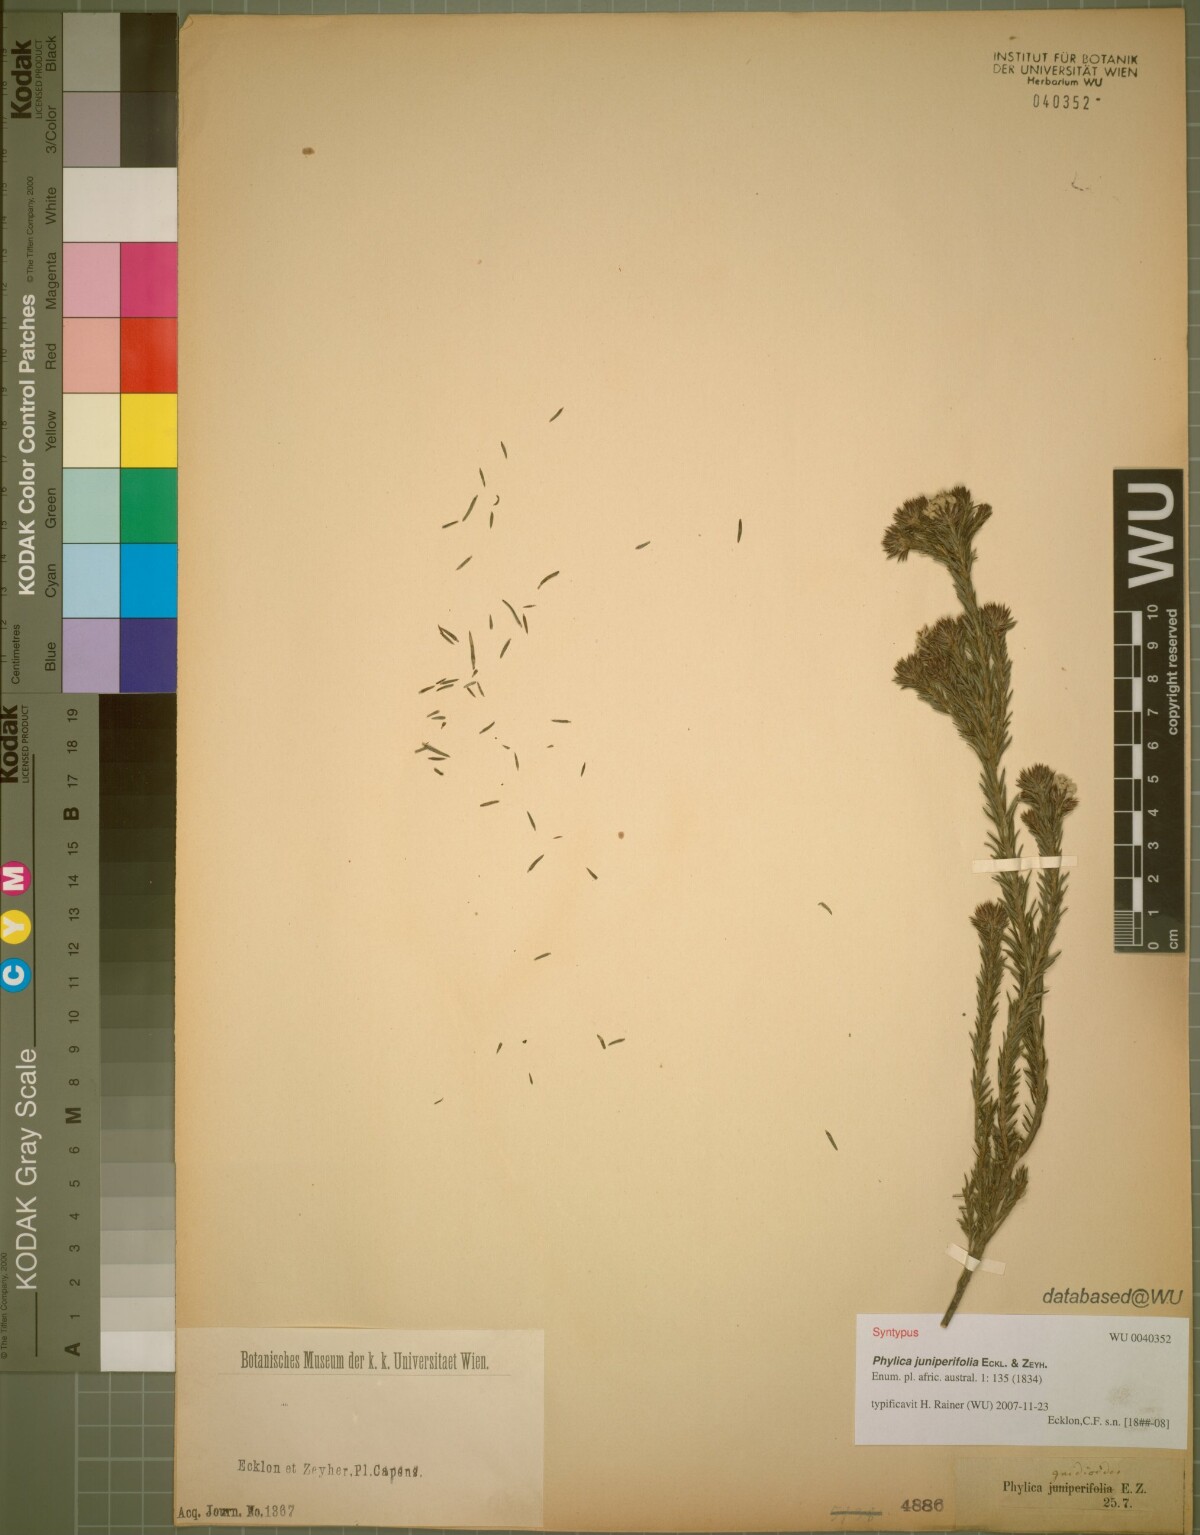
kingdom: Plantae
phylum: Tracheophyta
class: Magnoliopsida
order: Rosales
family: Rhamnaceae
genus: Phylica
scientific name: Phylica gnidioides
